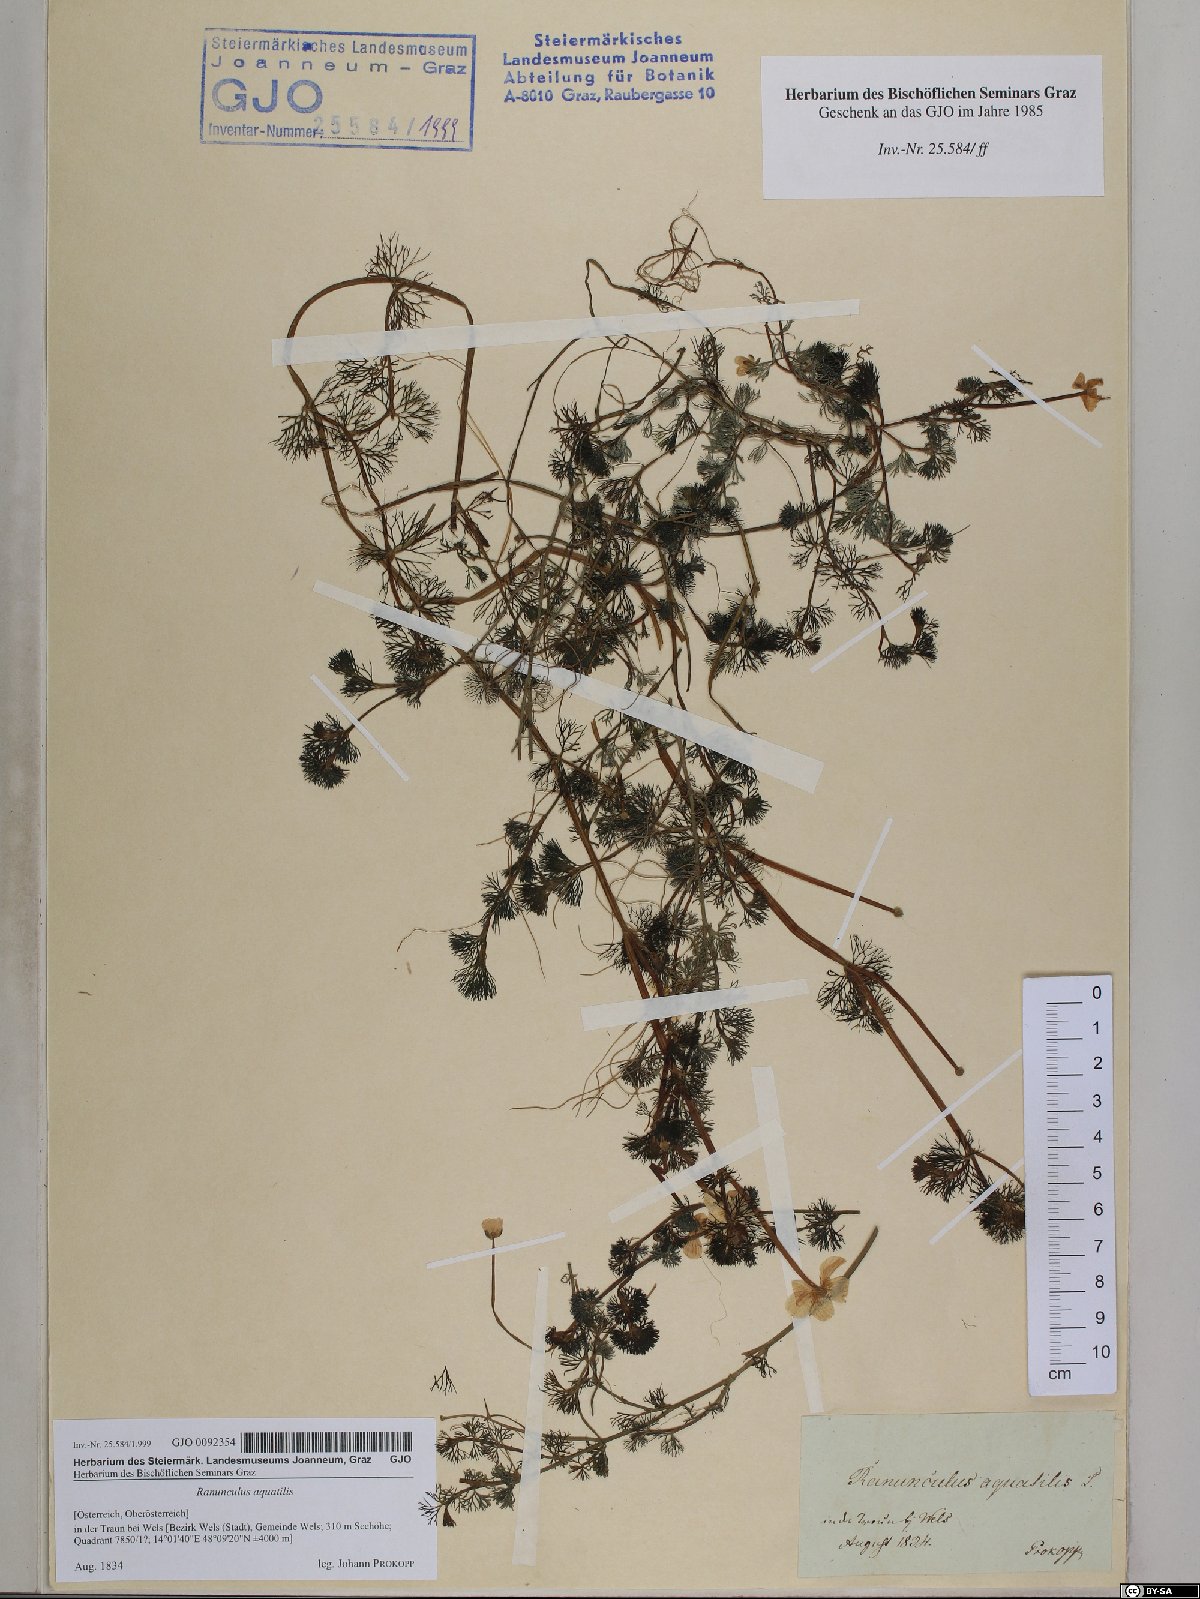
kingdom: Plantae
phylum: Tracheophyta
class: Magnoliopsida
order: Ranunculales
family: Ranunculaceae
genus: Ranunculus
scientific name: Ranunculus aquatilis
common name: Common water-crowfoot
